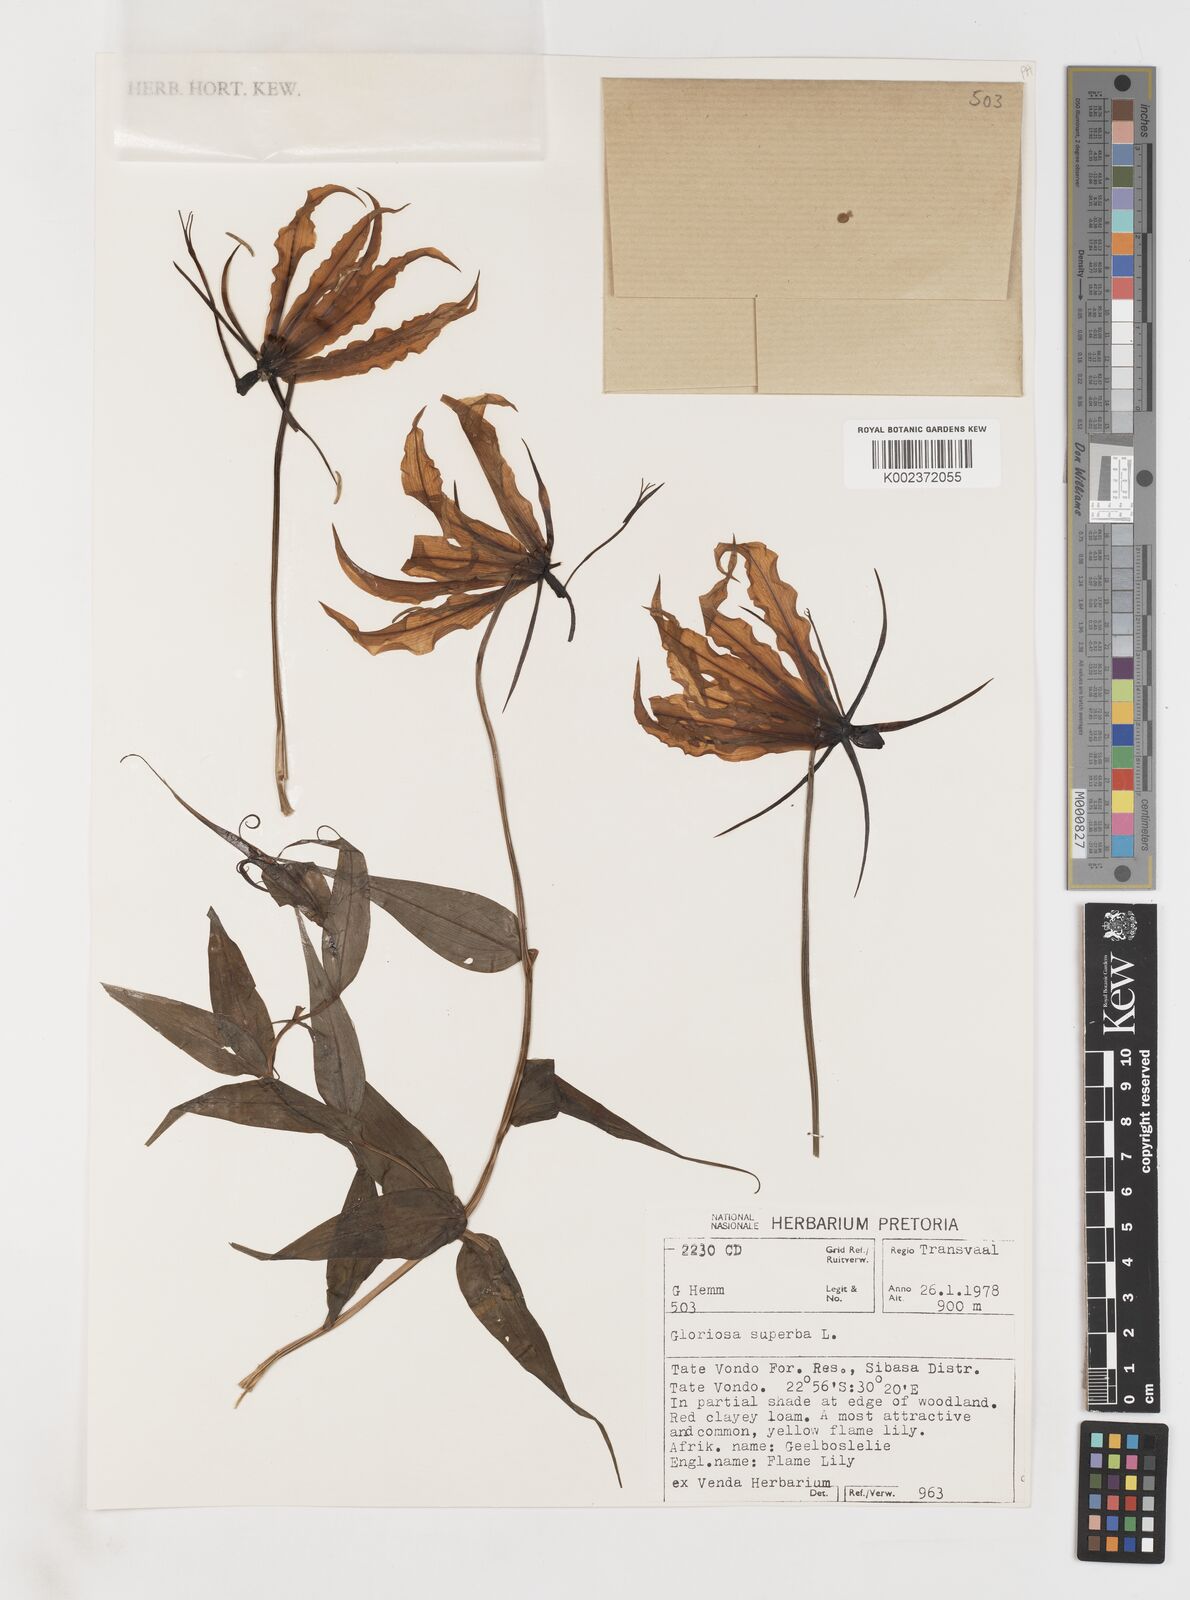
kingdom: Plantae
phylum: Tracheophyta
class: Liliopsida
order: Liliales
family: Colchicaceae
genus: Gloriosa
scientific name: Gloriosa simplex
